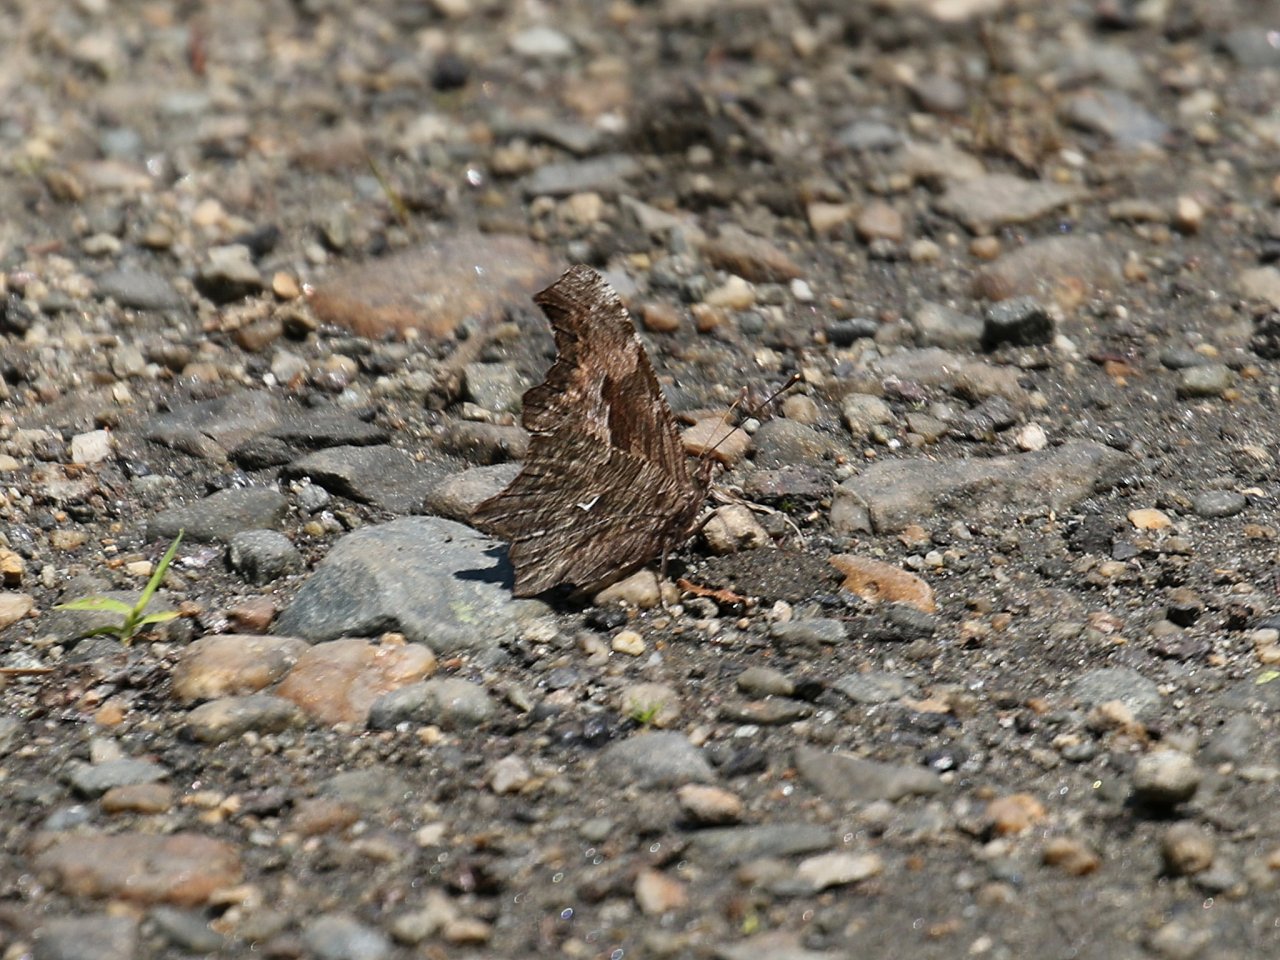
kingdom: Animalia
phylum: Arthropoda
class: Insecta
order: Lepidoptera
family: Nymphalidae
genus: Polygonia
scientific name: Polygonia progne
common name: Gray Comma
